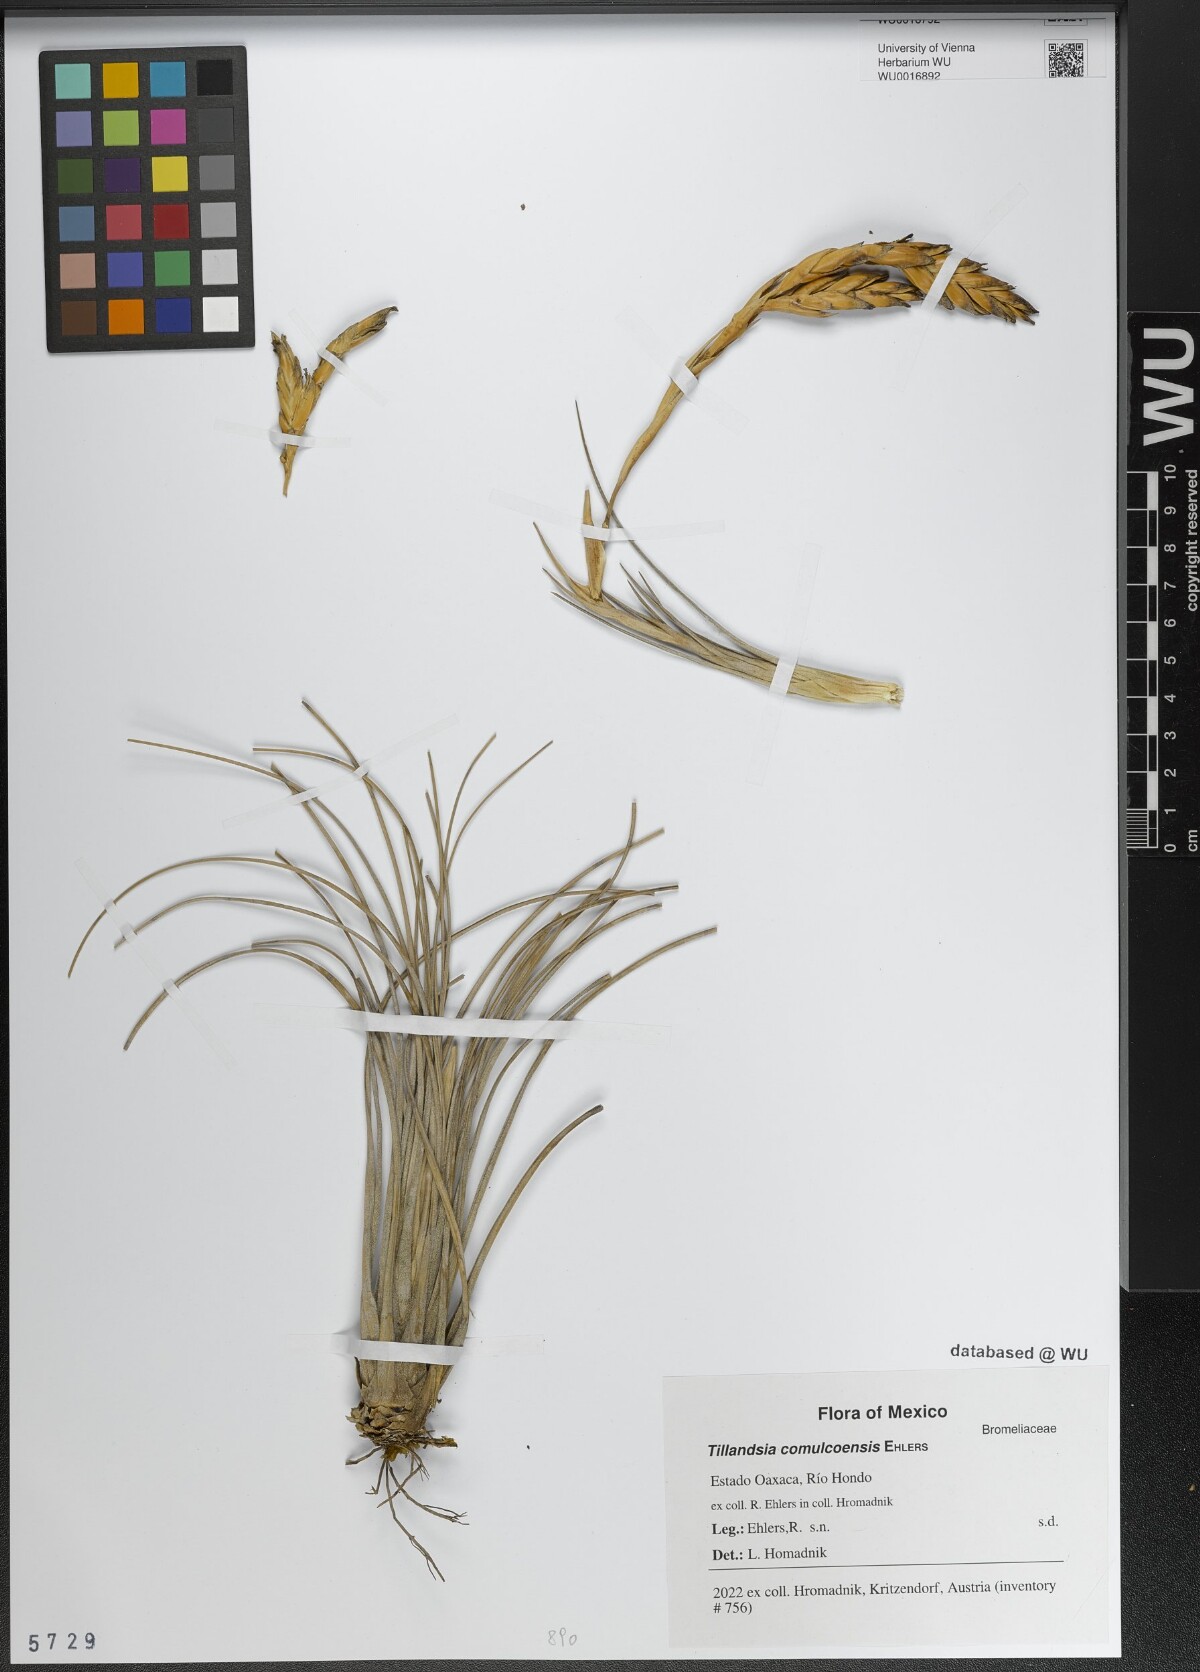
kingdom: Plantae
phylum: Tracheophyta
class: Liliopsida
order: Poales
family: Bromeliaceae
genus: Tillandsia
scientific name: Tillandsia comulcoensis
